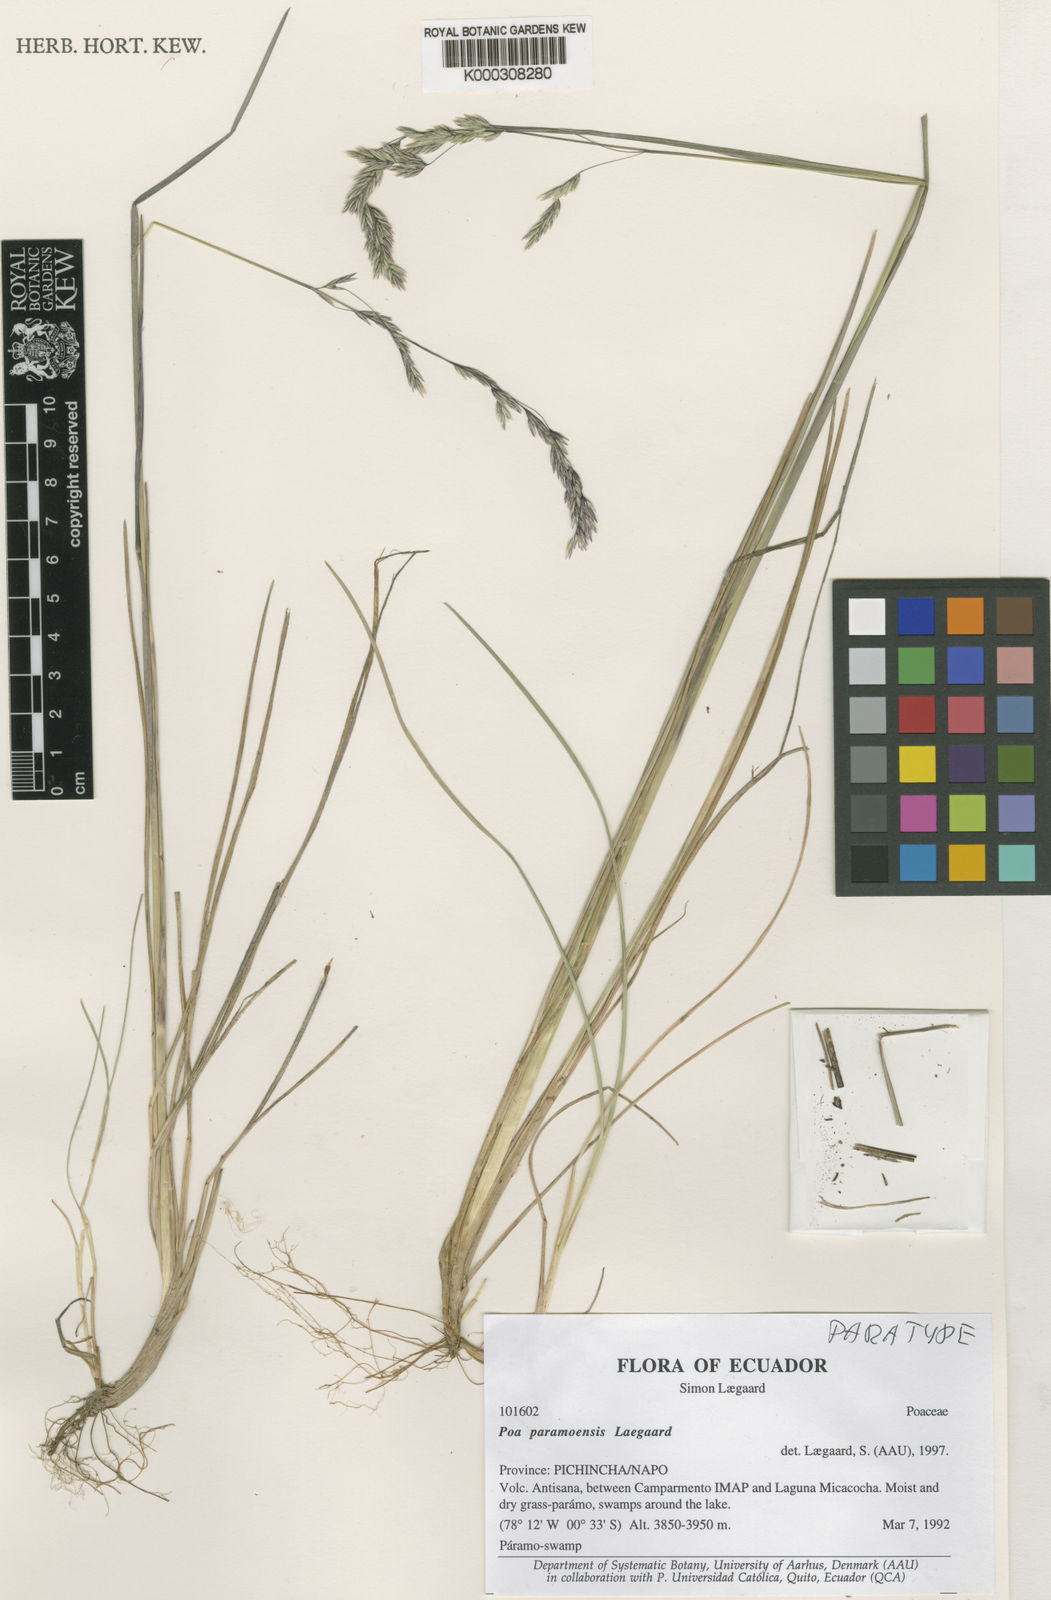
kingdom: Plantae
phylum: Tracheophyta
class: Liliopsida
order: Poales
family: Poaceae
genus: Poa
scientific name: Poa huancavelicae
